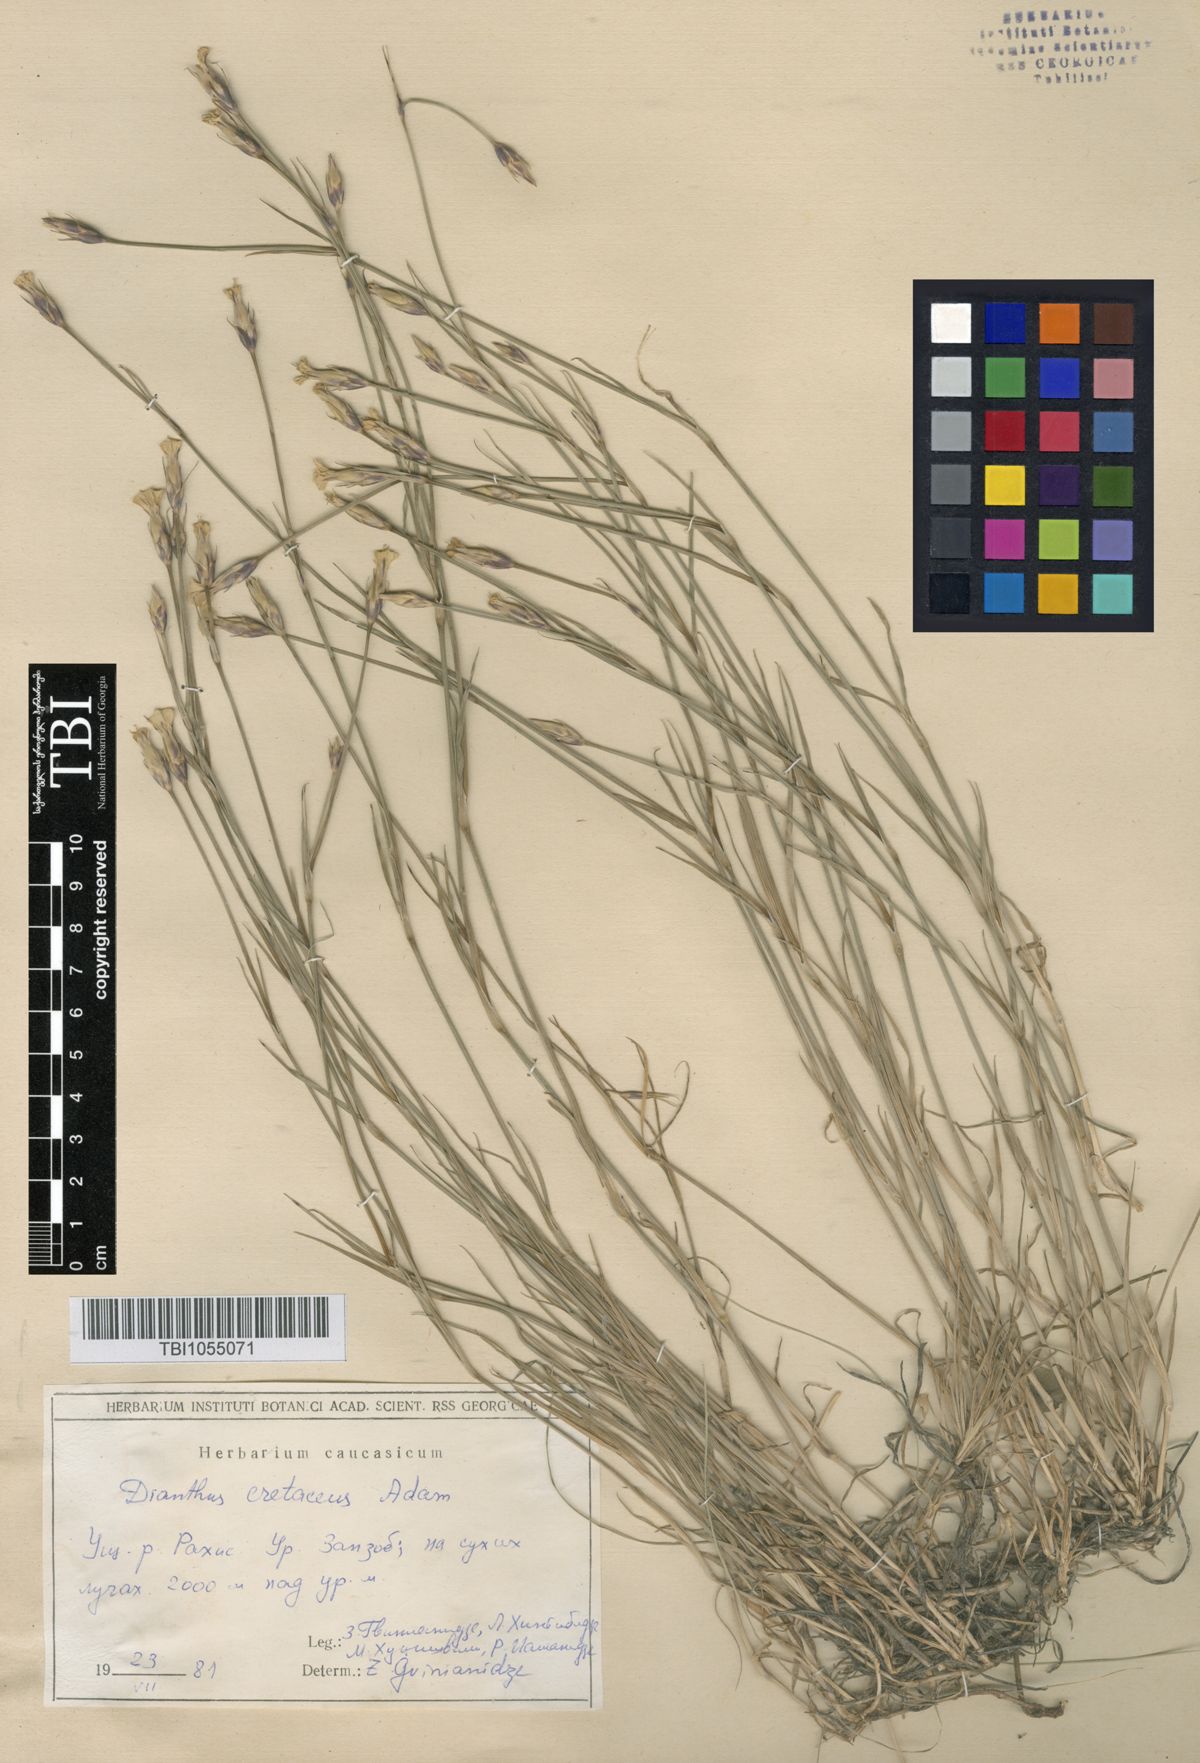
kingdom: Plantae
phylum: Tracheophyta
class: Magnoliopsida
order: Caryophyllales
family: Caryophyllaceae
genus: Dianthus
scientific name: Dianthus cretaceus
